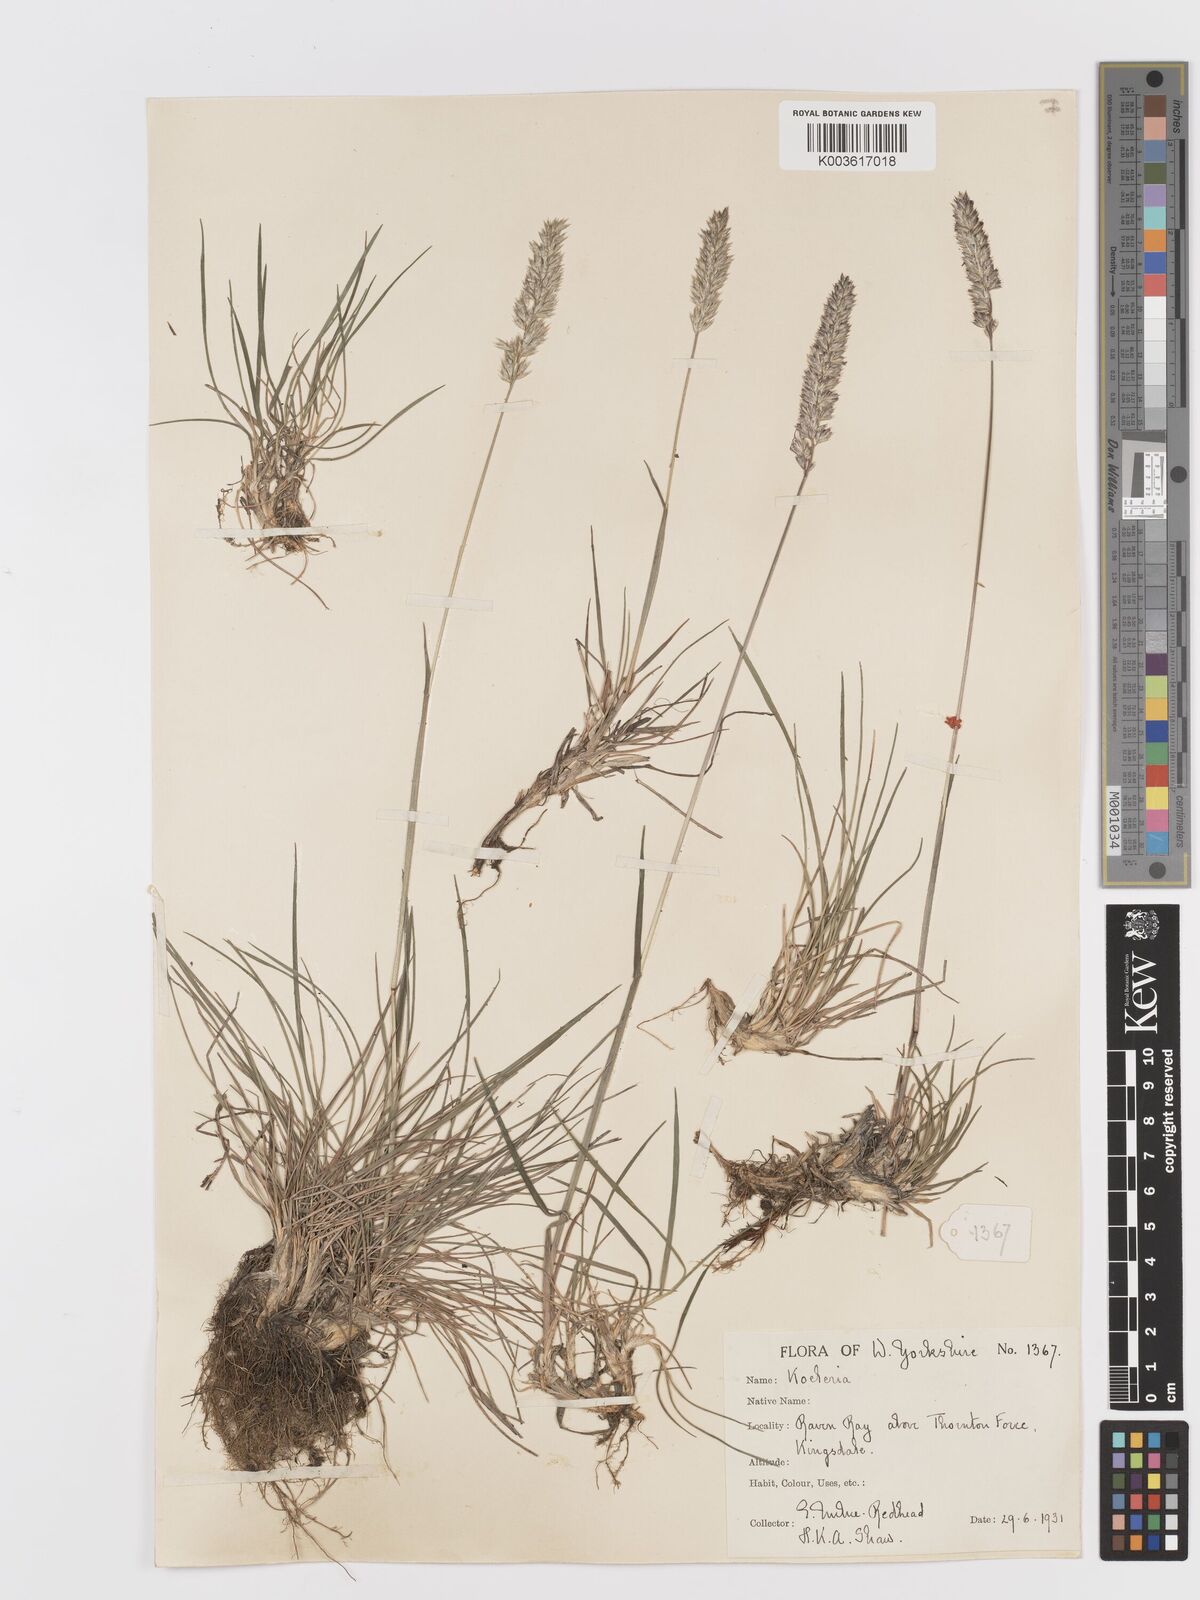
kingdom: Plantae
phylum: Tracheophyta
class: Liliopsida
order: Poales
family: Poaceae
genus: Koeleria
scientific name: Koeleria macrantha
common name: Crested hair-grass
